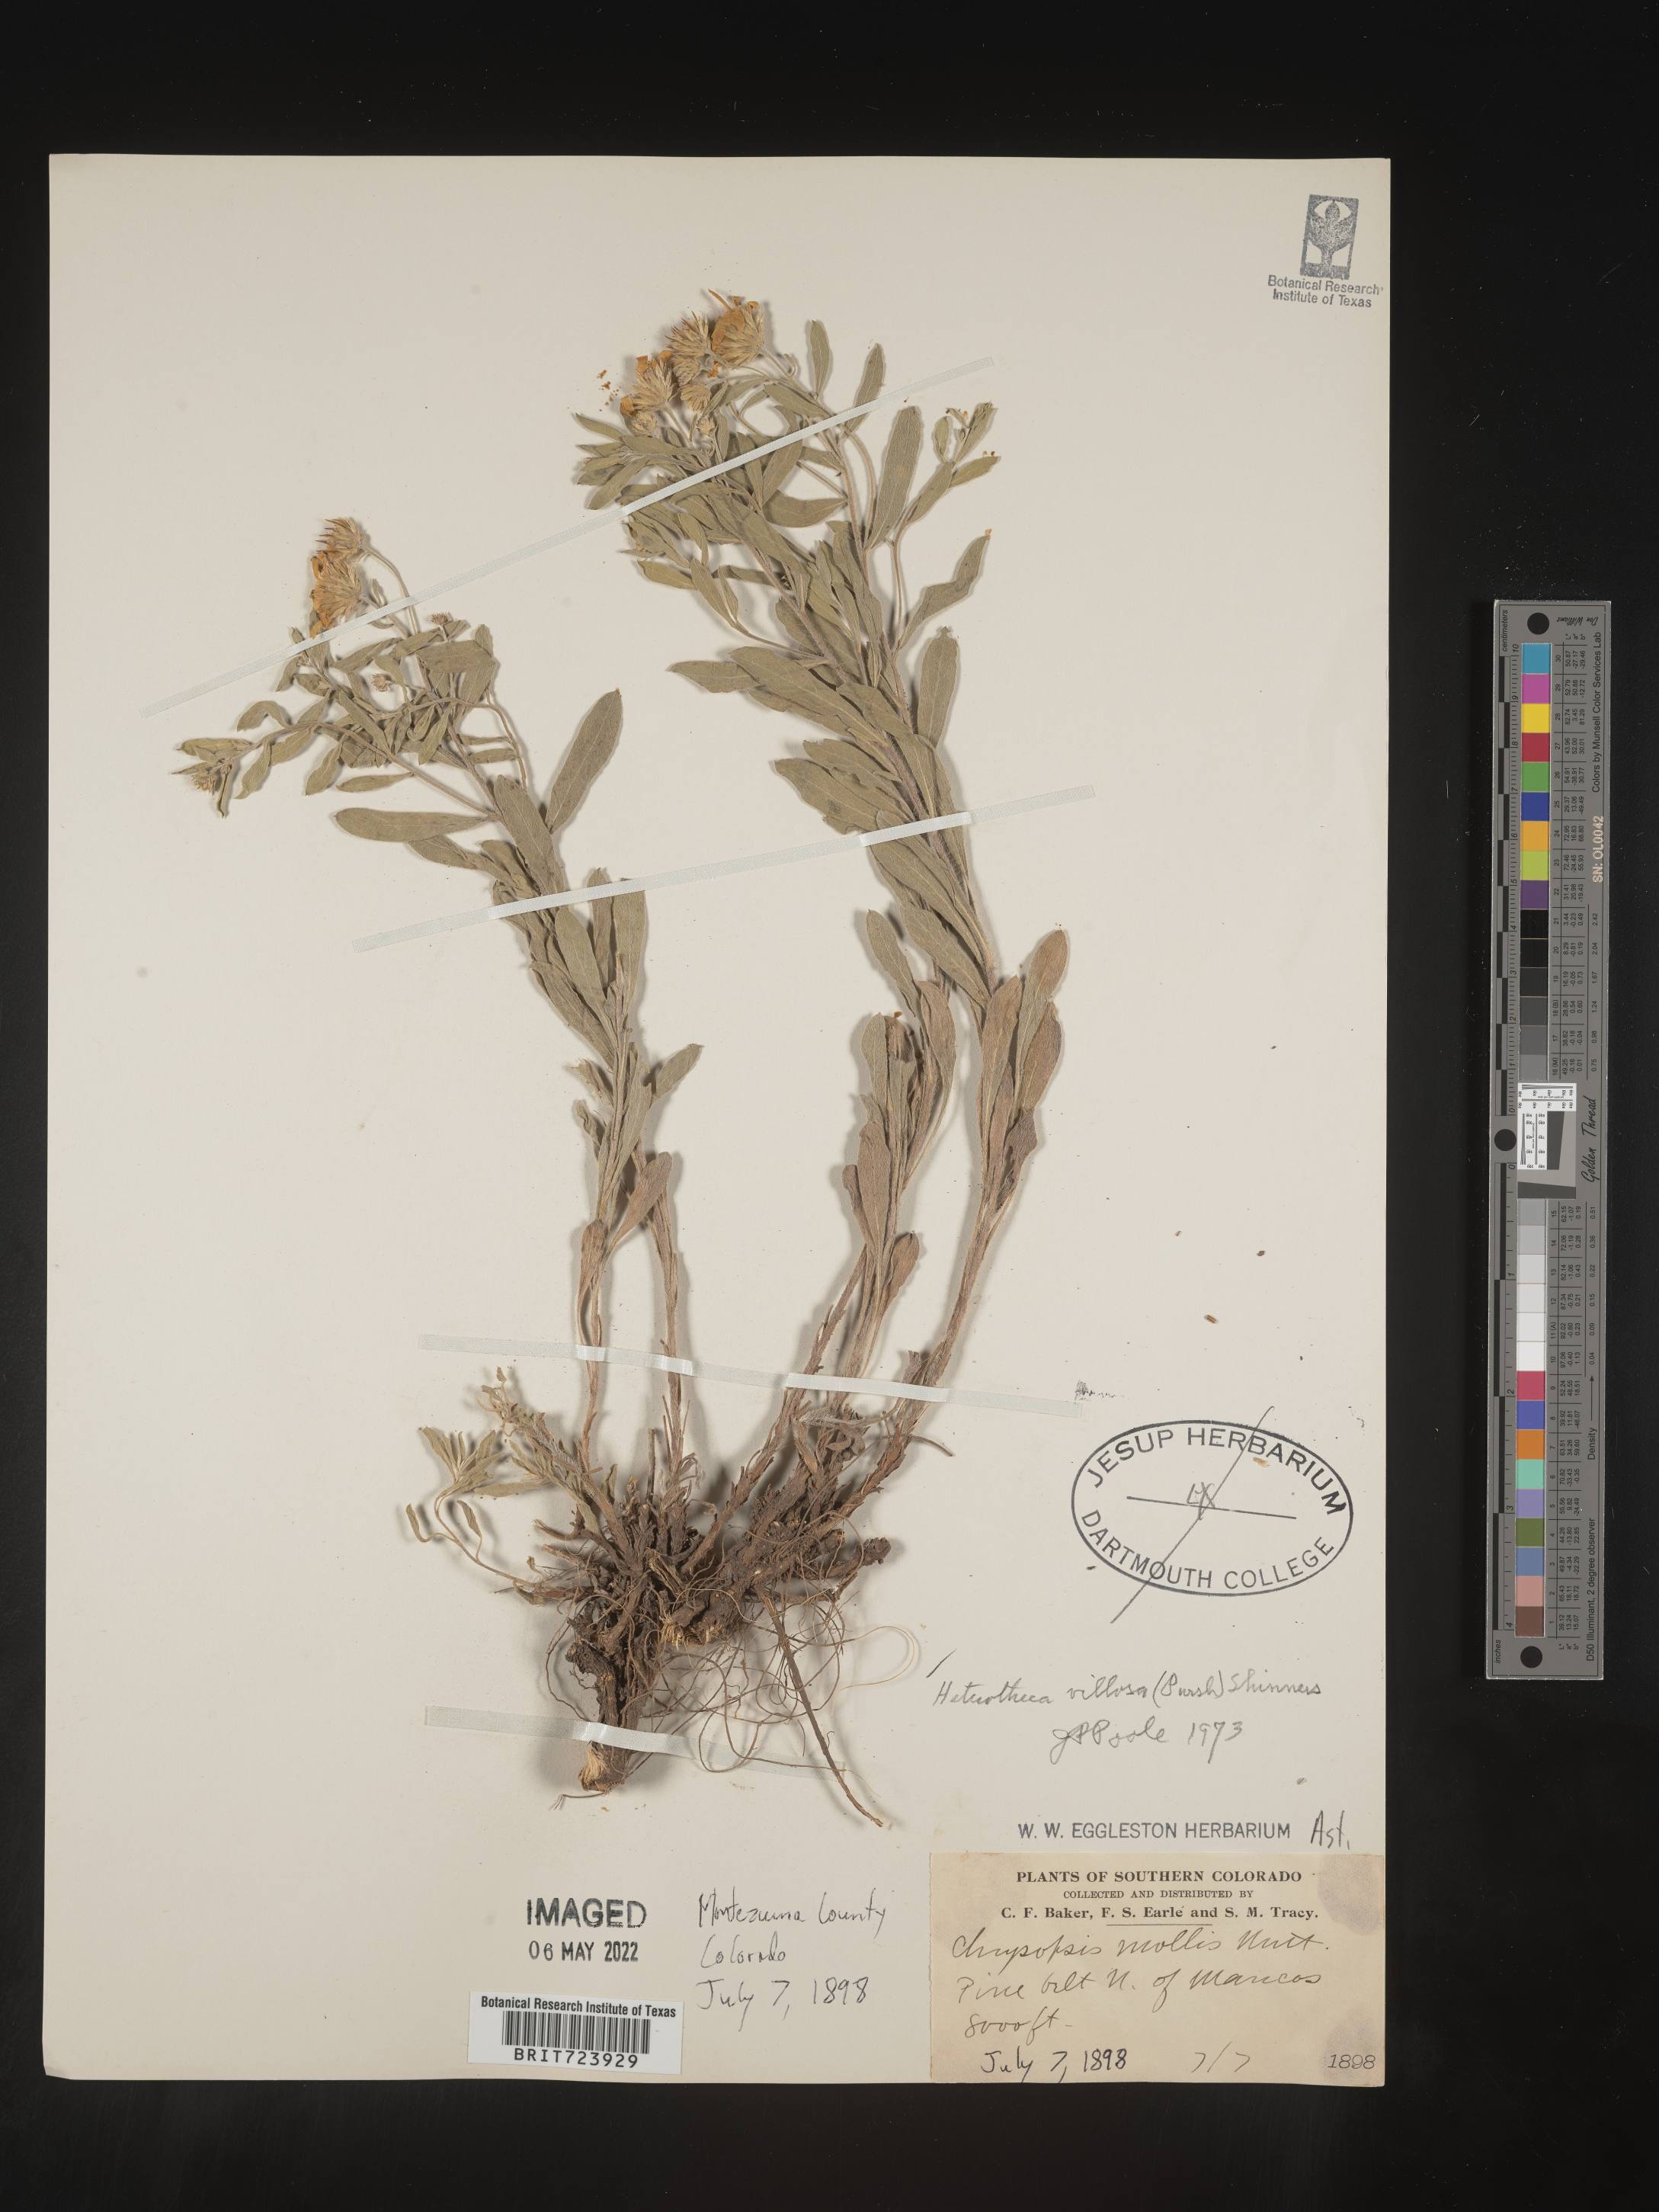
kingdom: Plantae
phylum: Tracheophyta
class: Magnoliopsida
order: Asterales
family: Asteraceae
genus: Heterotheca
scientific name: Heterotheca pedunculata
